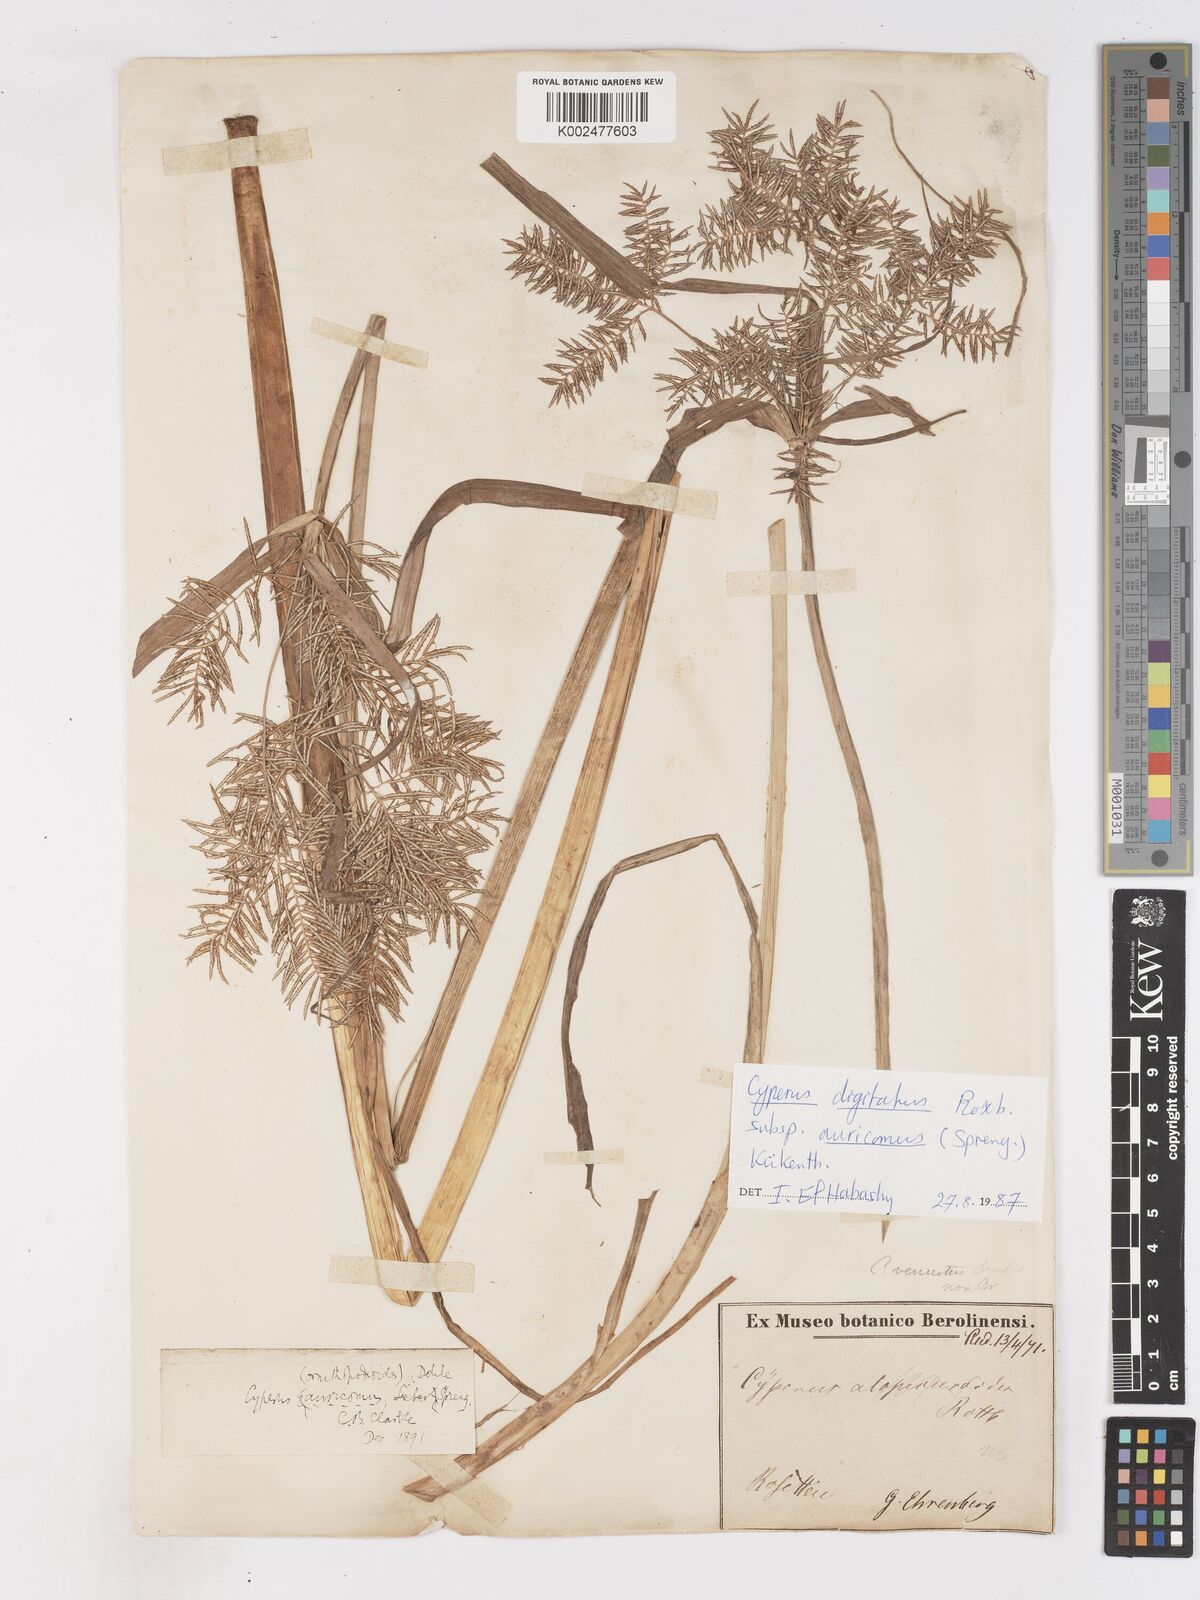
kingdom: Plantae
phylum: Tracheophyta
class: Liliopsida
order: Poales
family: Cyperaceae
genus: Cyperus
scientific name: Cyperus digitatus
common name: Finger flatsedge
